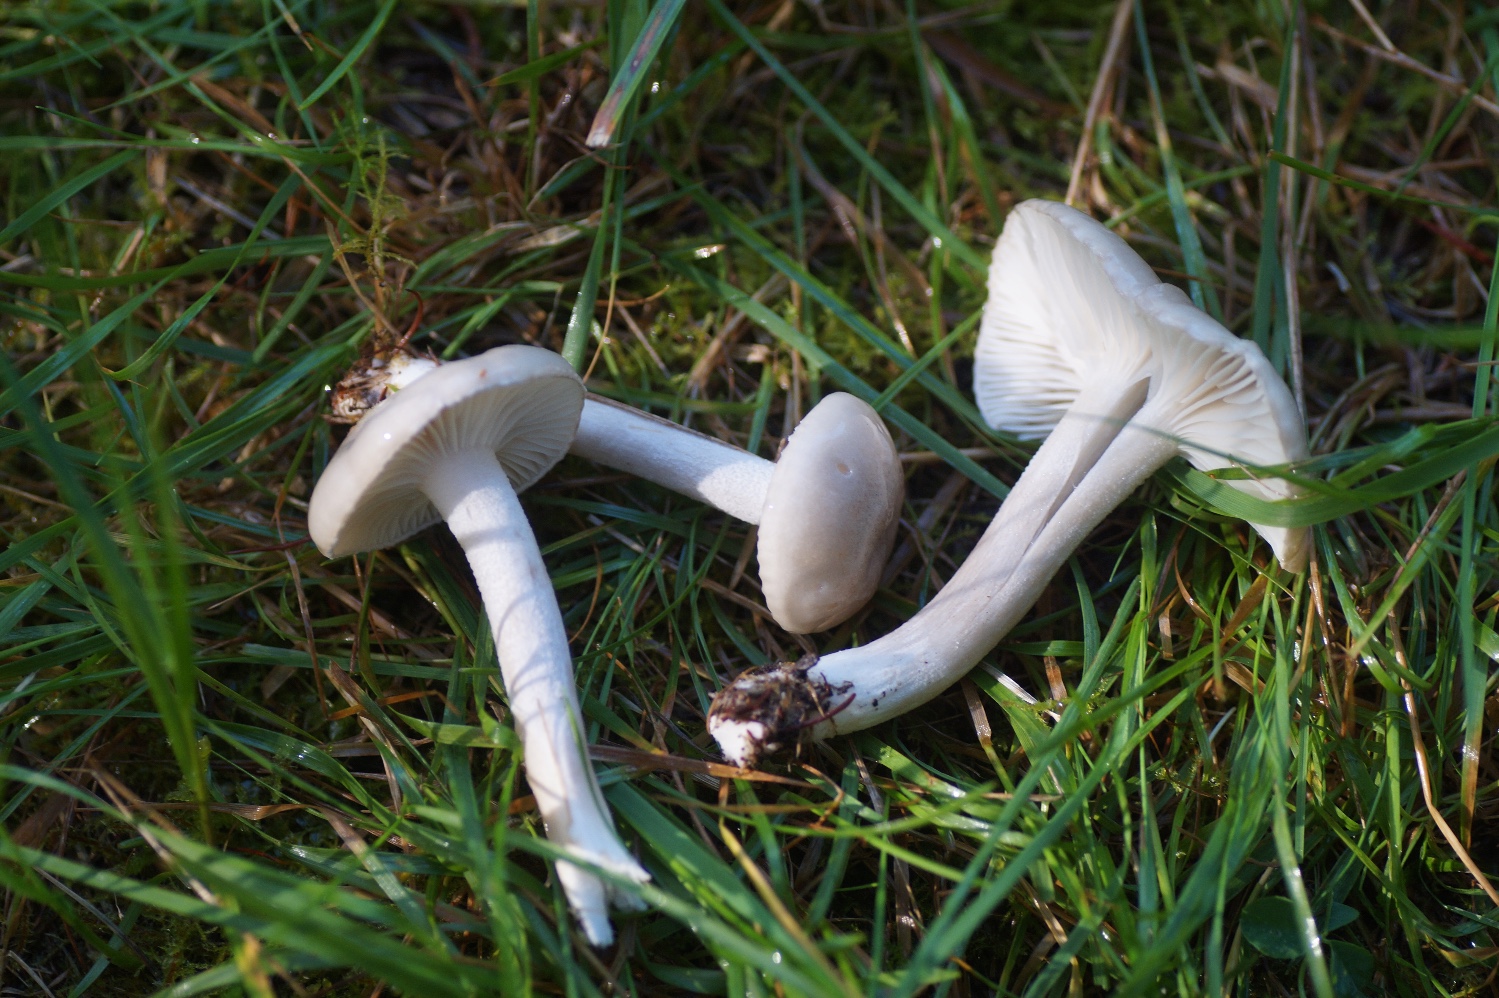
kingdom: Fungi
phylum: Basidiomycota
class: Agaricomycetes
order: Agaricales
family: Hygrophoraceae
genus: Hygrophorus
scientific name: Hygrophorus agathosmus
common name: vellugtende sneglehat
